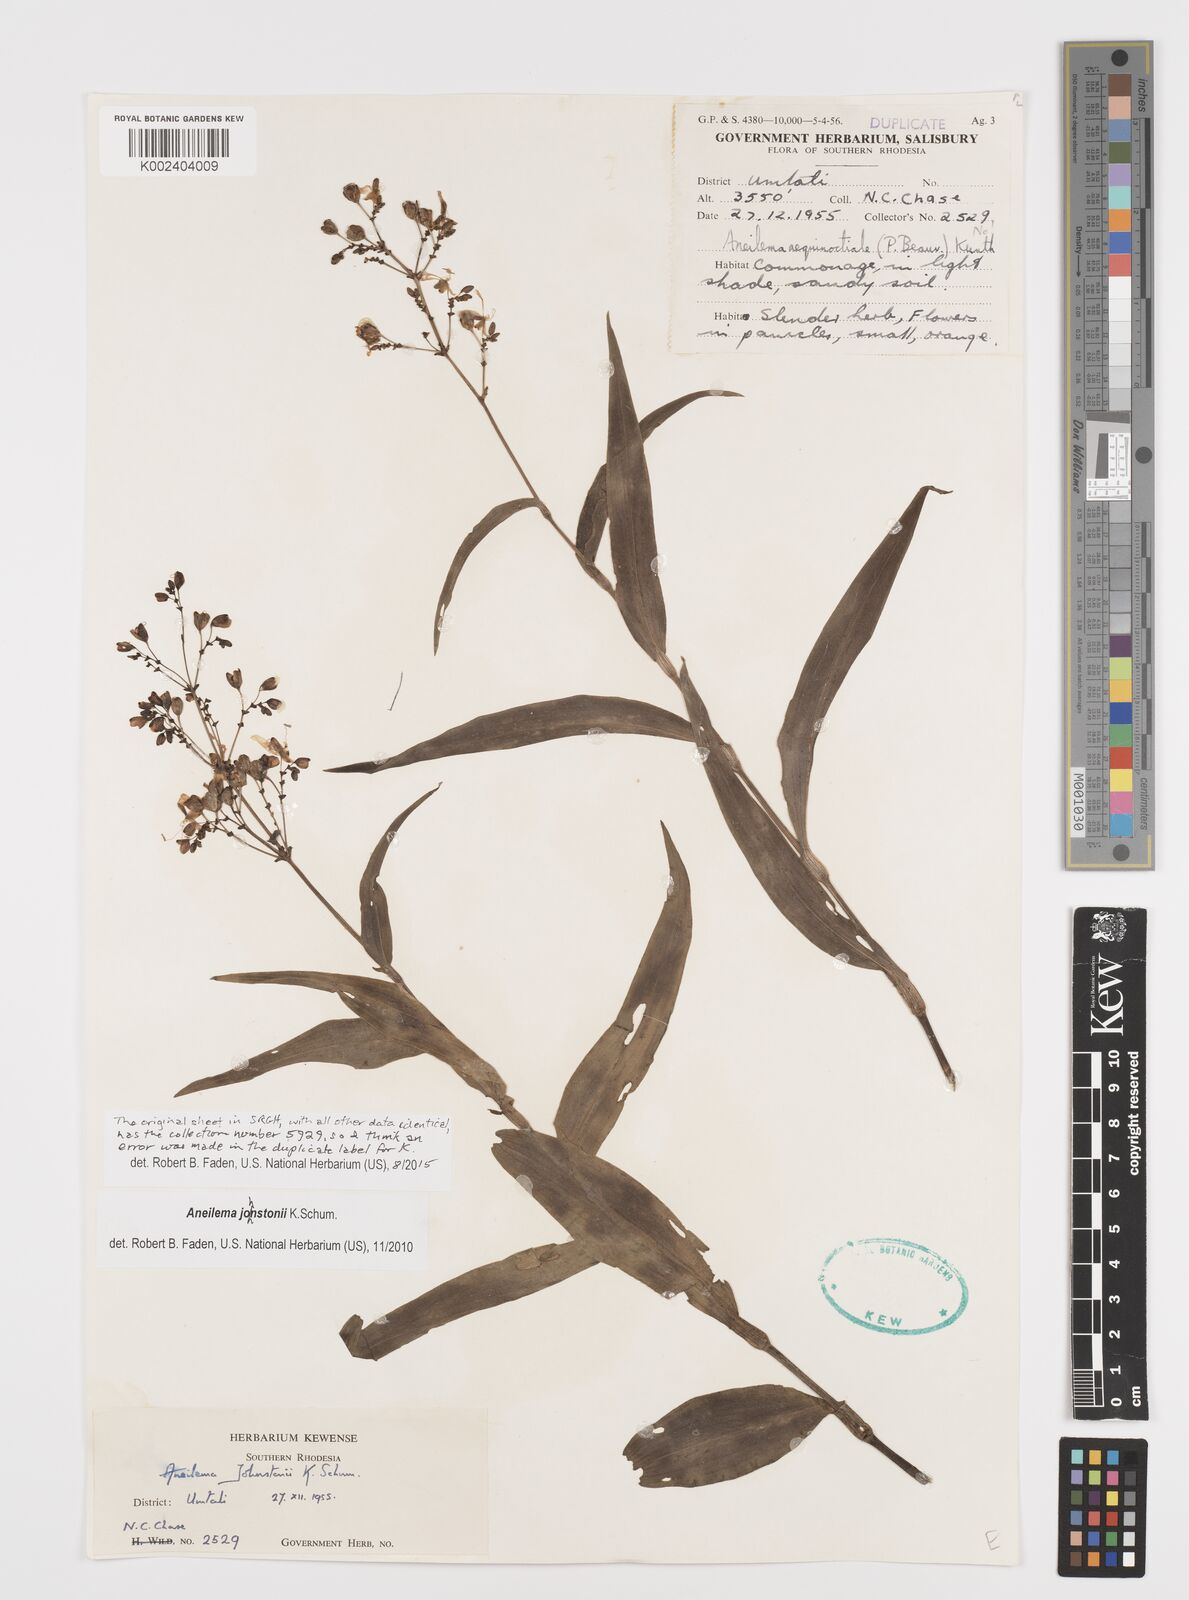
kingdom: Plantae
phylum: Tracheophyta
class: Liliopsida
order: Commelinales
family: Commelinaceae
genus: Aneilema
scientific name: Aneilema johnstonii
